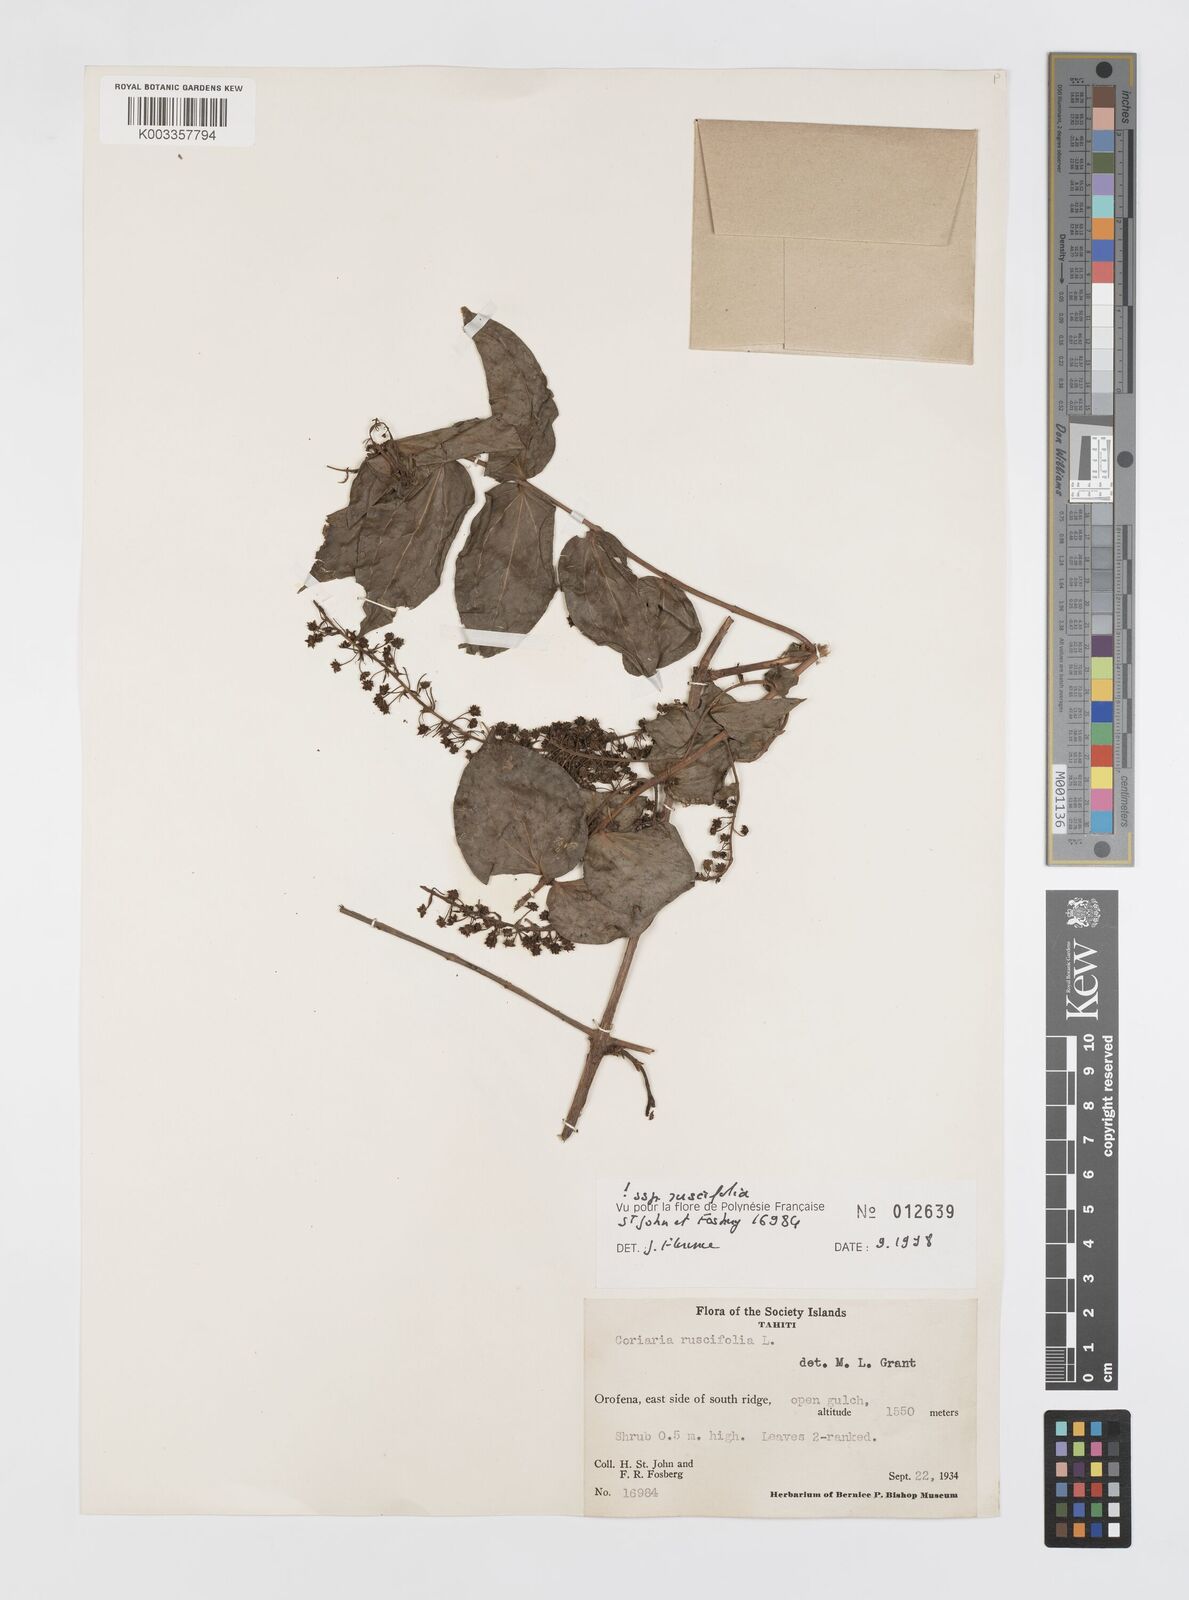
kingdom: Plantae
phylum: Tracheophyta
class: Magnoliopsida
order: Cucurbitales
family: Coriariaceae
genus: Coriaria
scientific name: Coriaria ruscifolia
